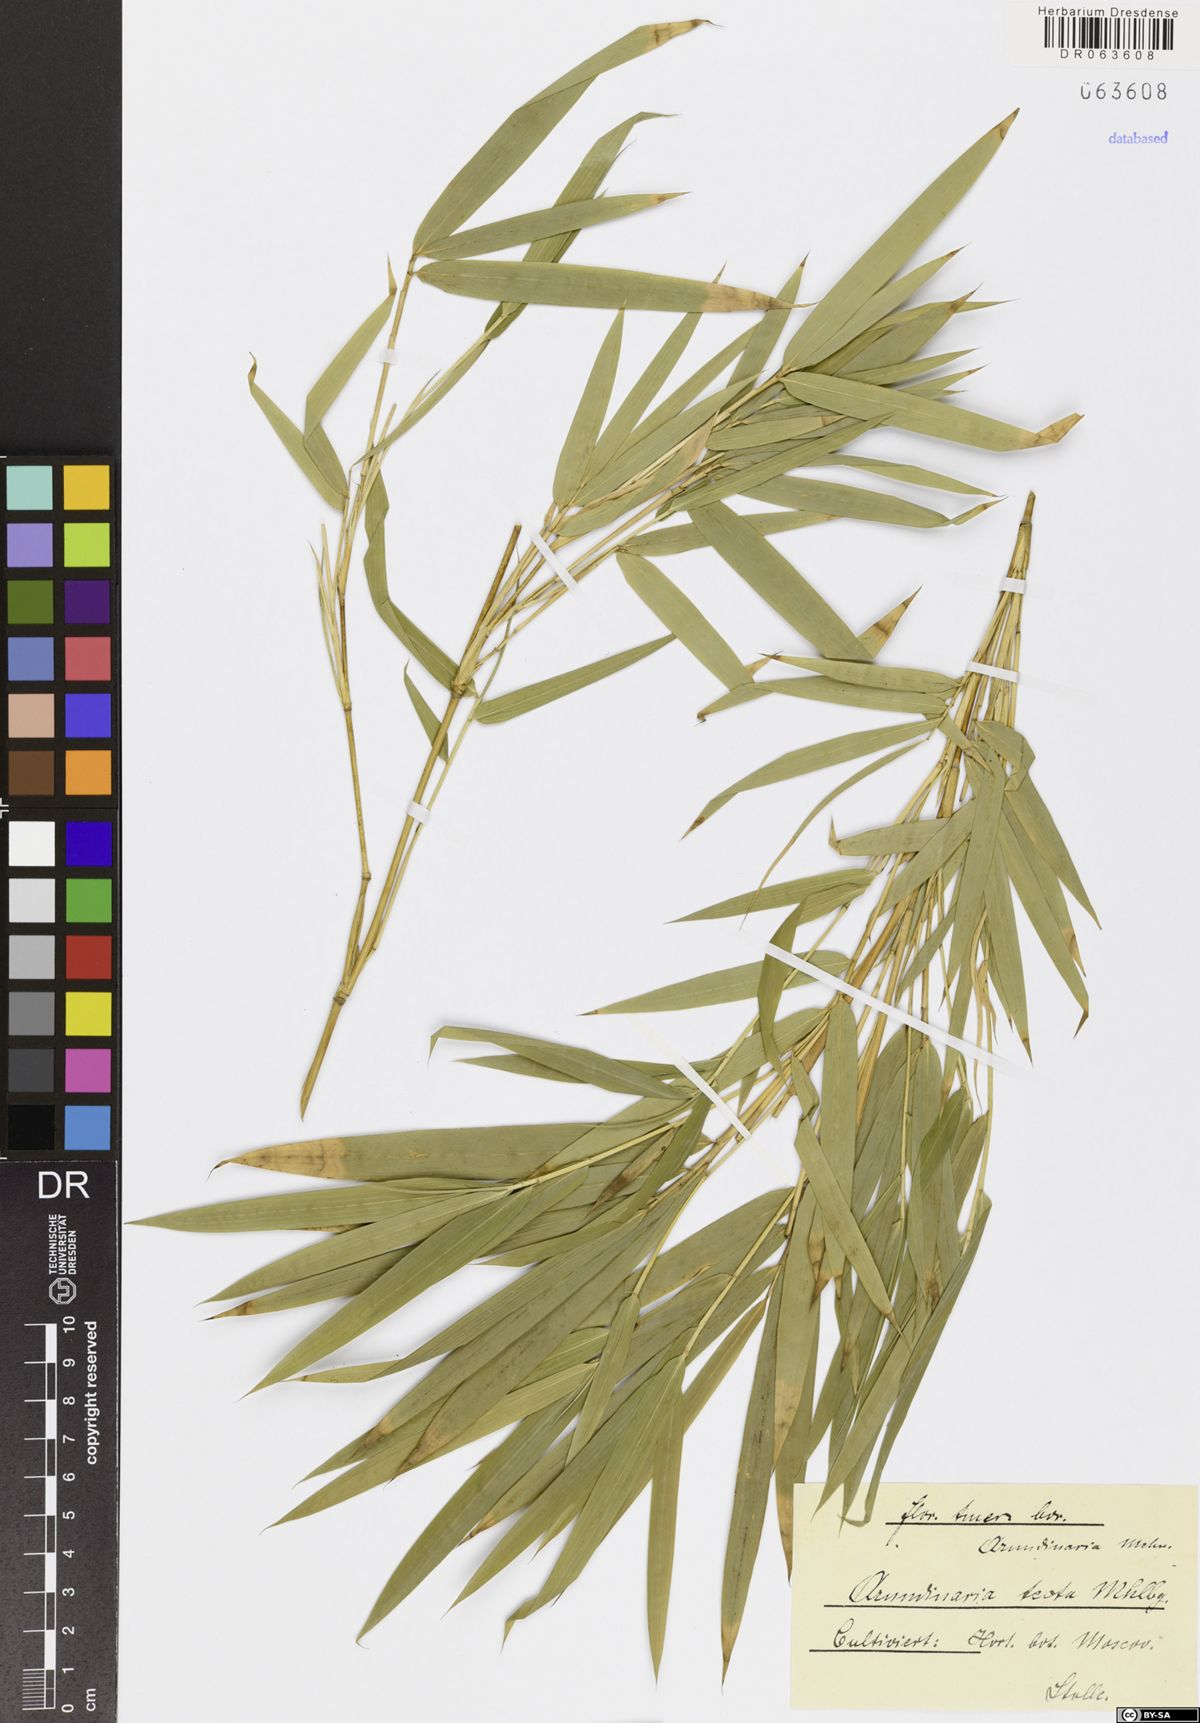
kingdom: Plantae
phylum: Tracheophyta
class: Liliopsida
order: Poales
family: Poaceae
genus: Arundinaria
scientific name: Arundinaria tecta
